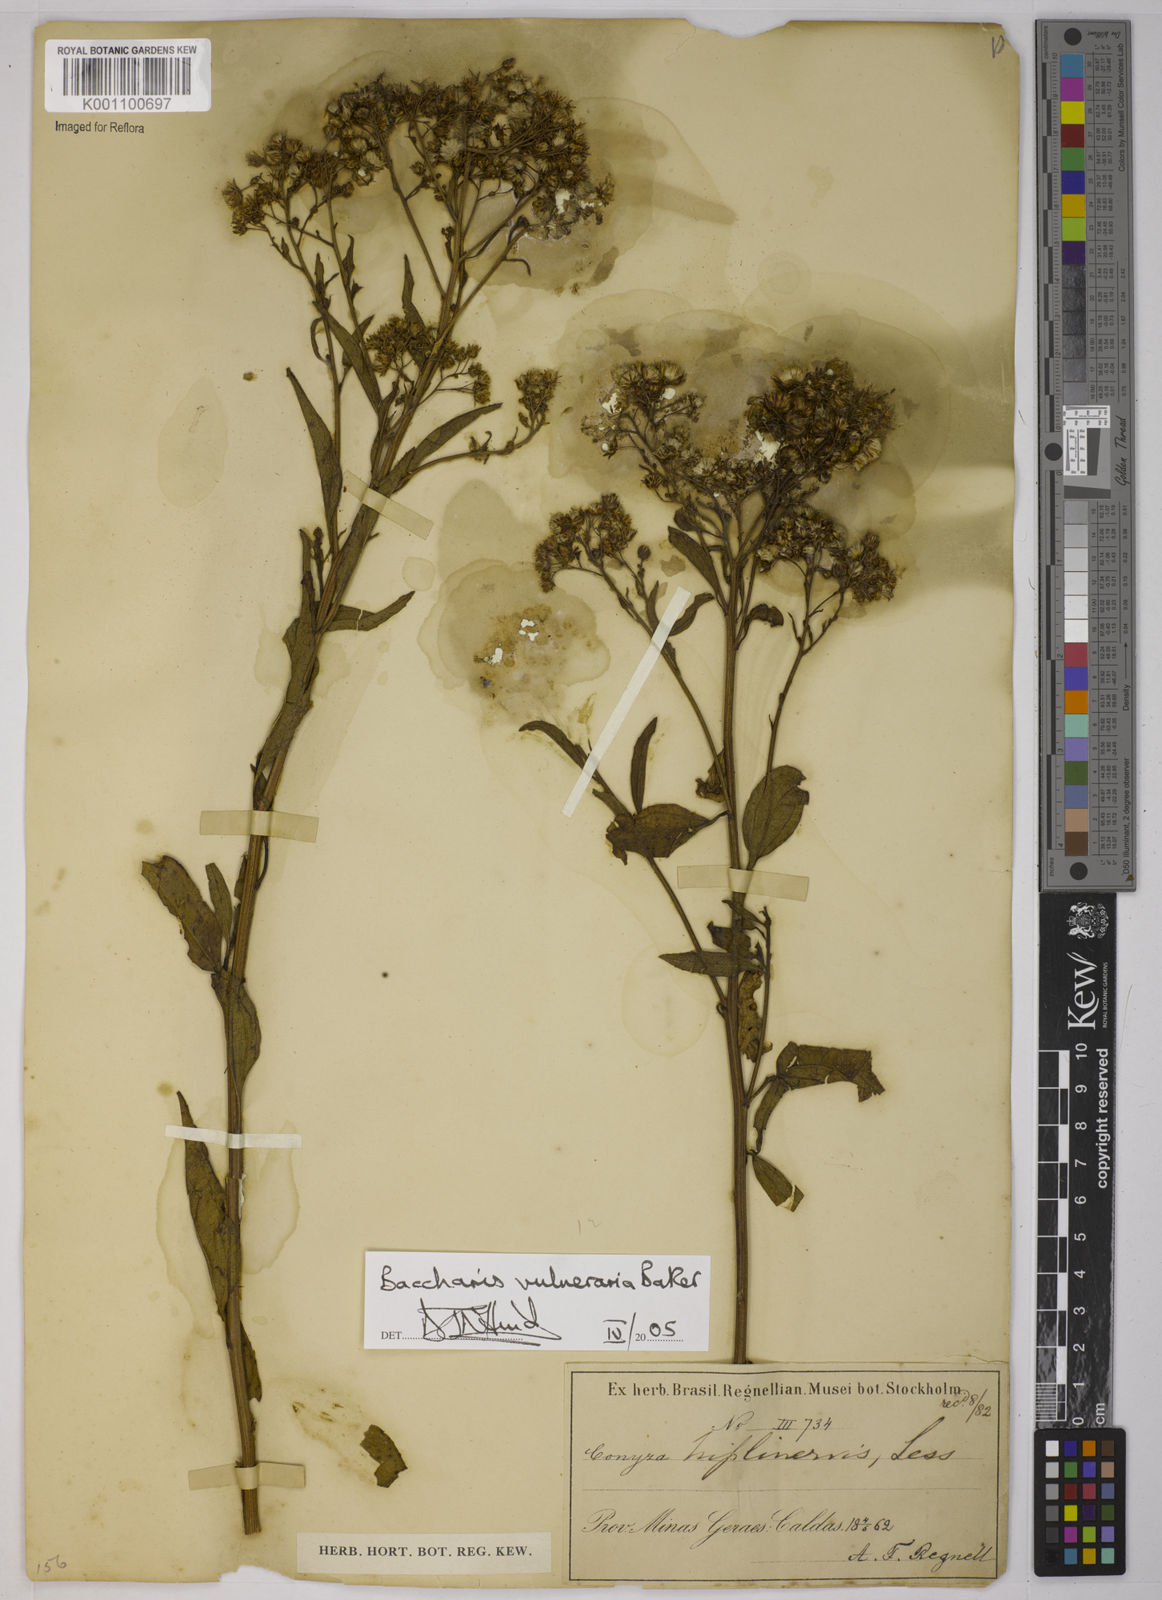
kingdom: Plantae
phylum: Tracheophyta
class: Magnoliopsida
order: Asterales
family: Asteraceae
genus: Archibaccharis
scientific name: Archibaccharis vulneraria
